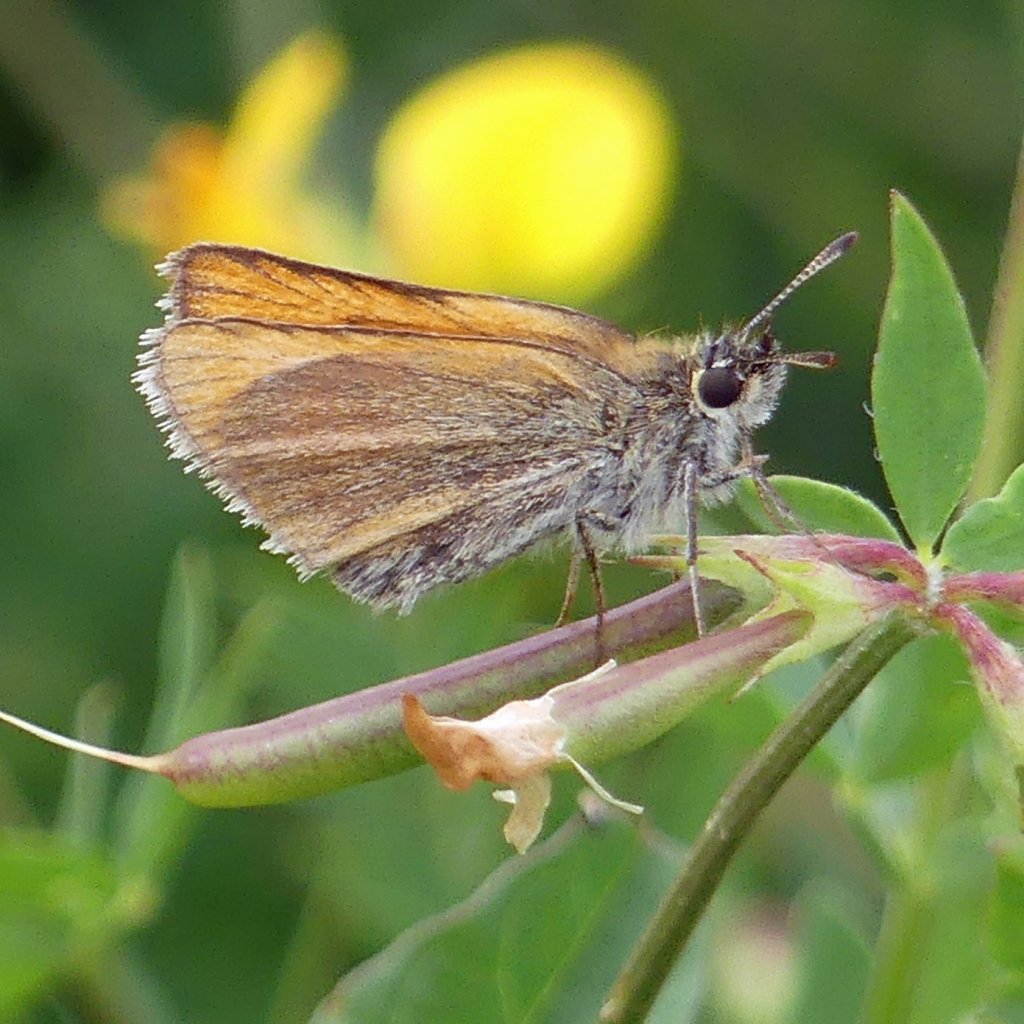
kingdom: Animalia
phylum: Arthropoda
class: Insecta
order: Lepidoptera
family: Hesperiidae
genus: Thymelicus
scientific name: Thymelicus lineola
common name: European Skipper
